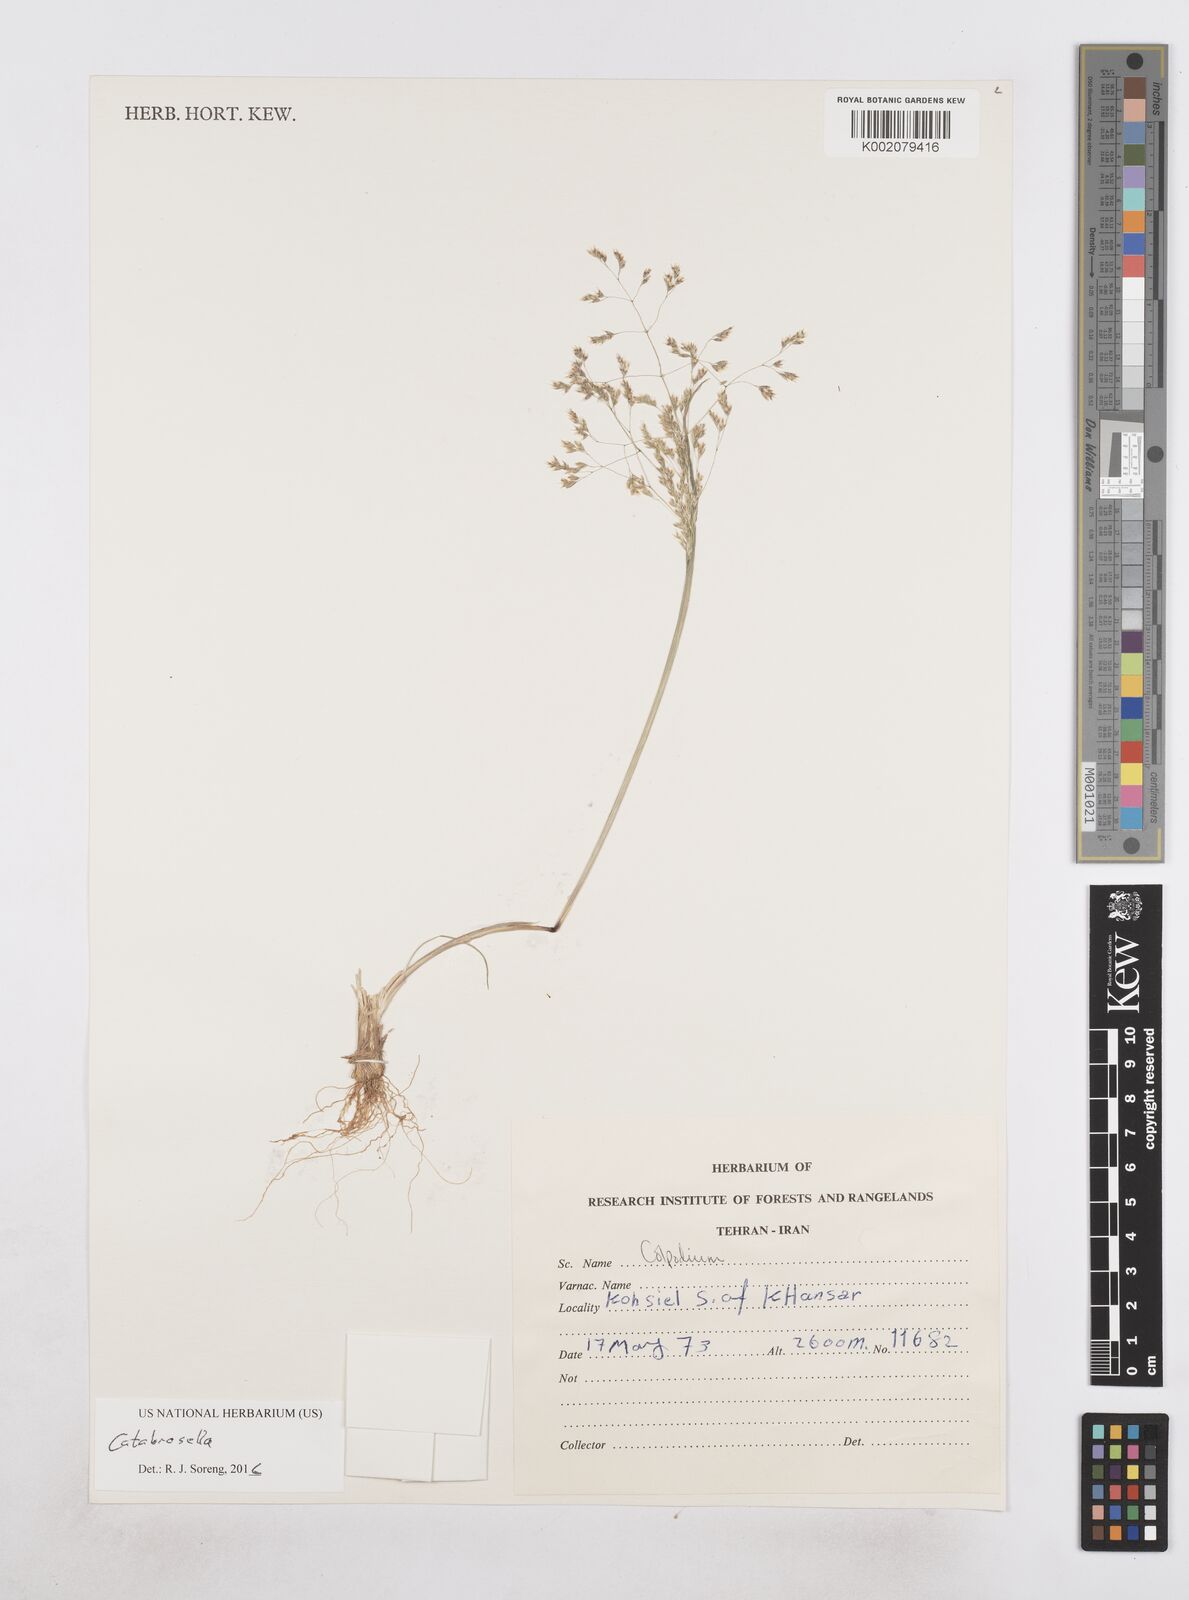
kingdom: Plantae
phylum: Tracheophyta
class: Liliopsida
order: Poales
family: Poaceae
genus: Colpodium
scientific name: Colpodium
